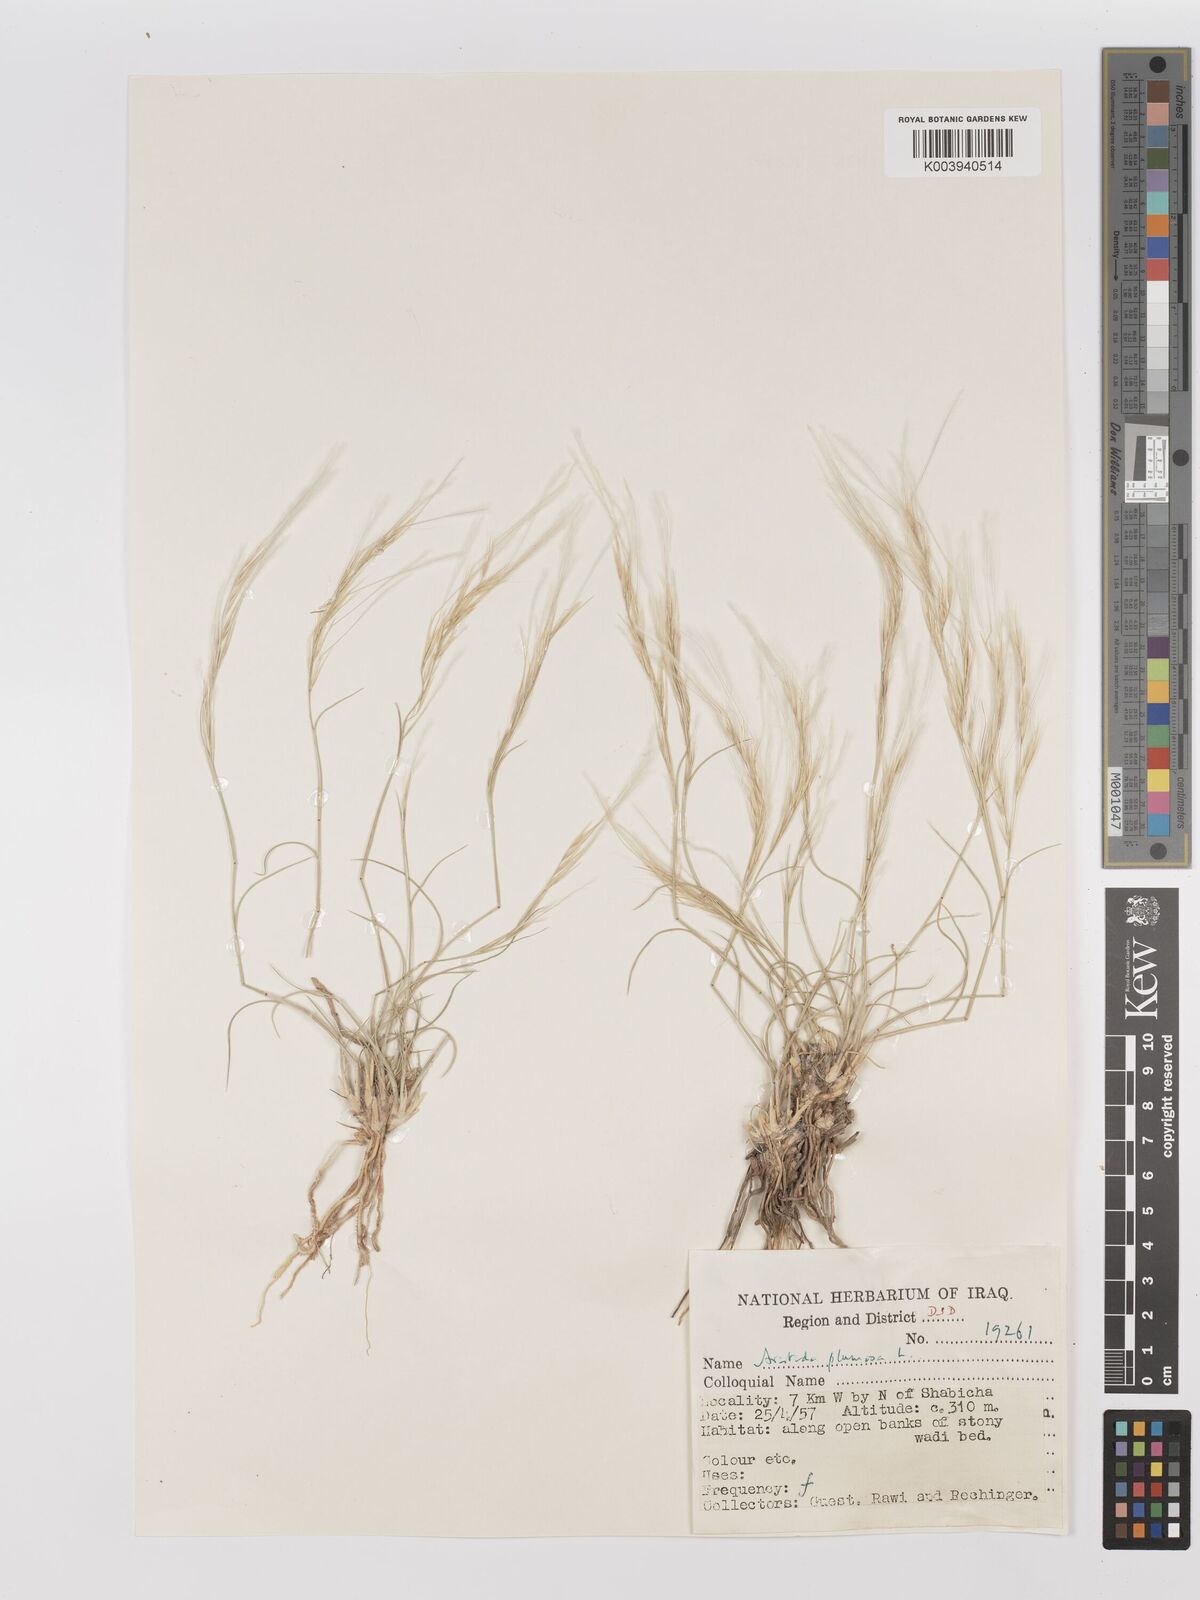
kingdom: Plantae
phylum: Tracheophyta
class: Liliopsida
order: Poales
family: Poaceae
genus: Stipagrostis
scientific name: Stipagrostis plumosa
